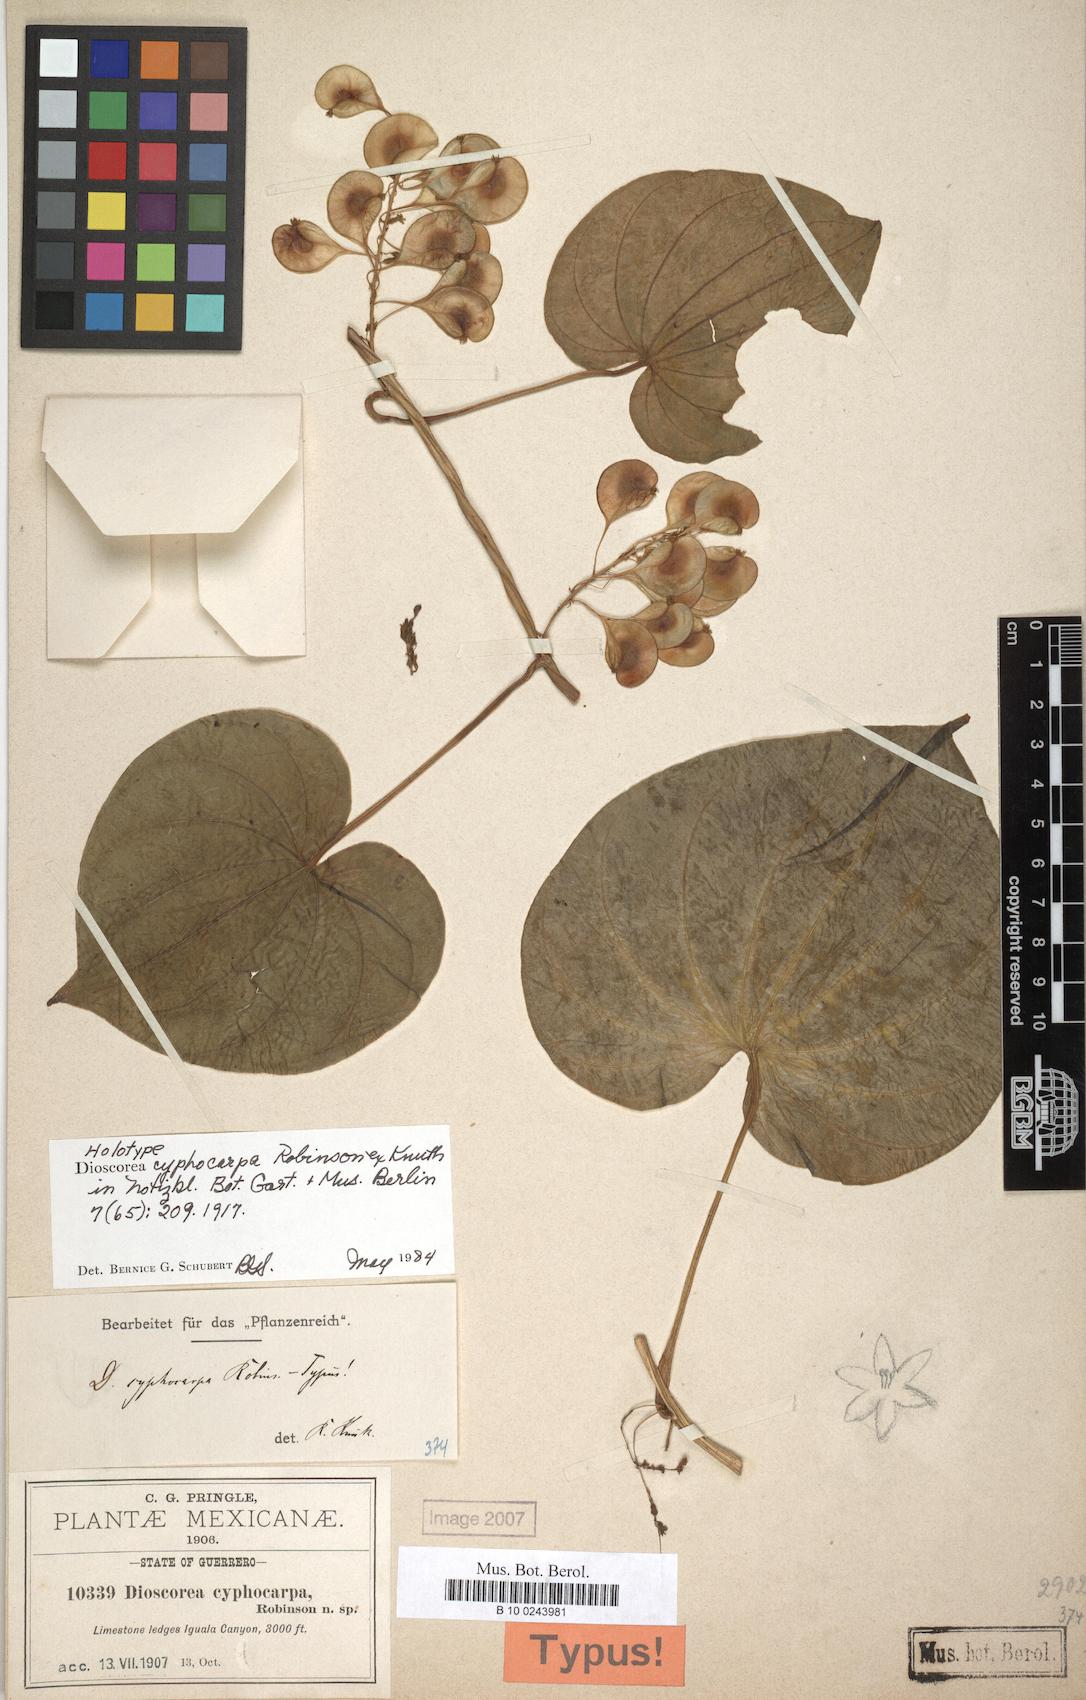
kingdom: Plantae
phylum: Tracheophyta
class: Liliopsida
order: Dioscoreales
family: Dioscoreaceae
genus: Dioscorea
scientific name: Dioscorea cyphocarpa
